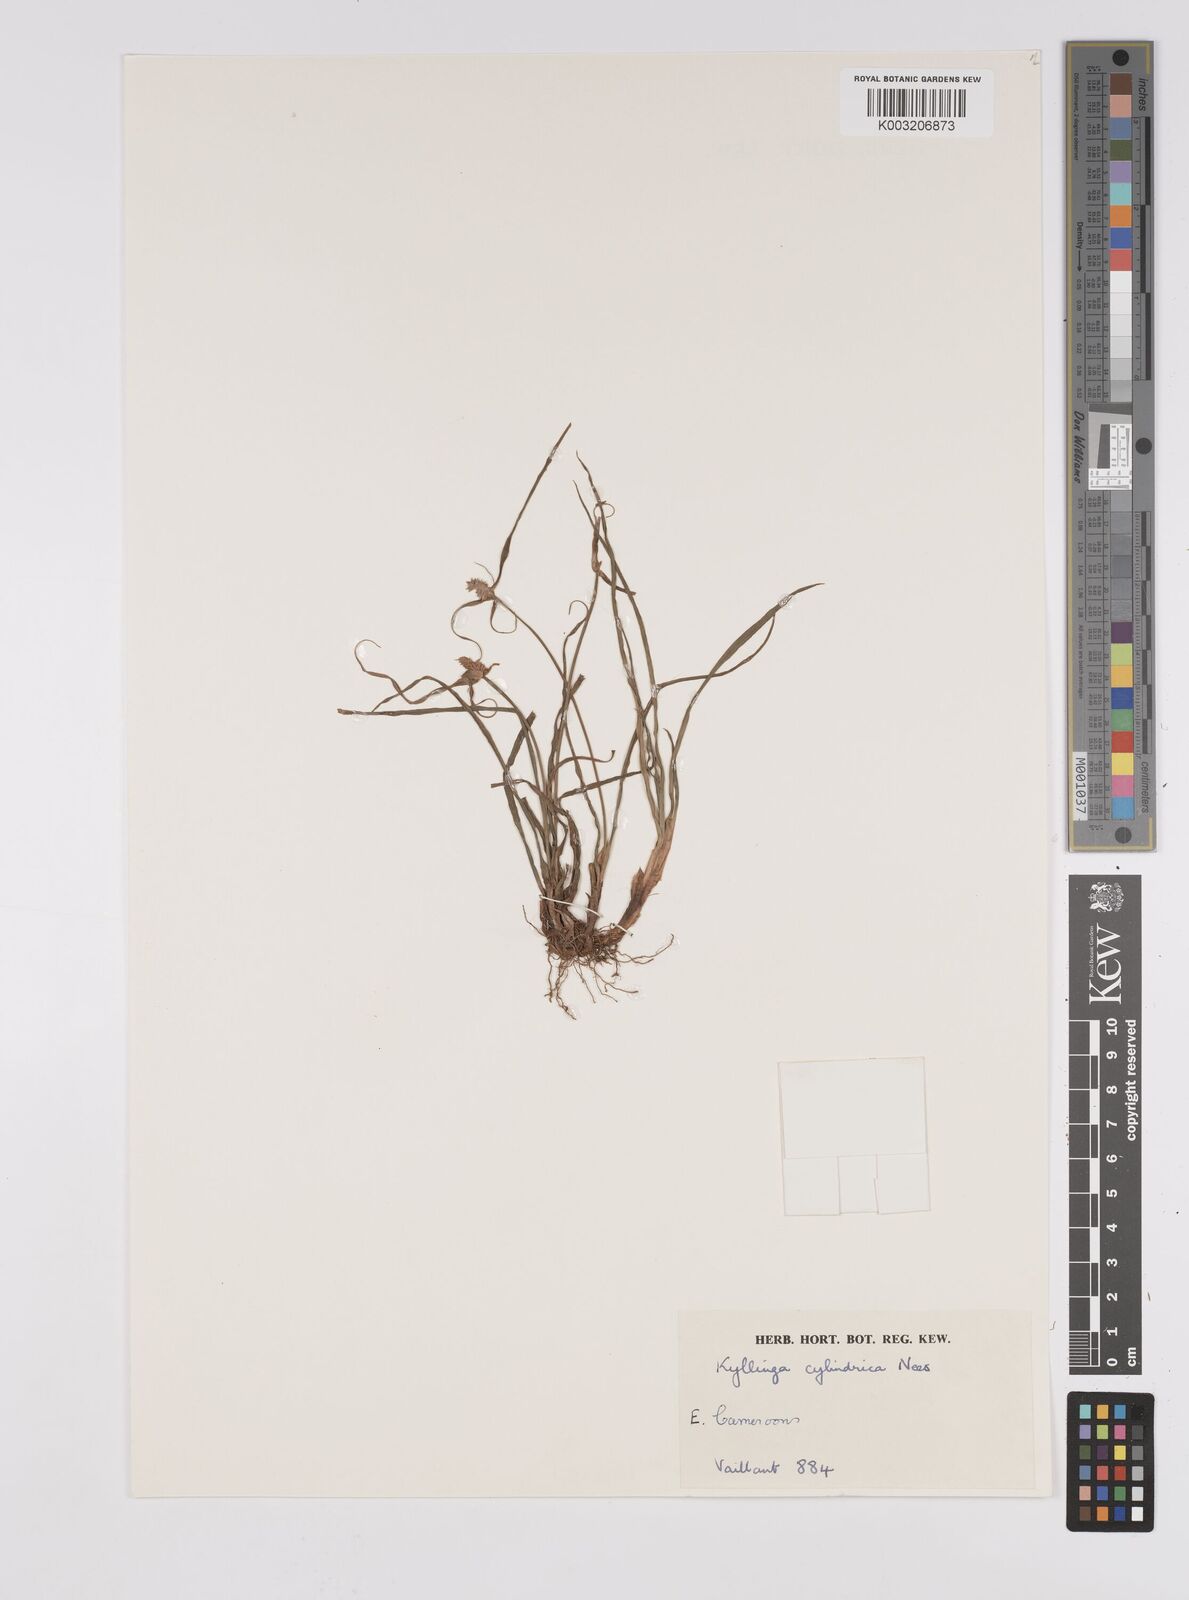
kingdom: Plantae
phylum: Tracheophyta
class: Liliopsida
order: Poales
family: Cyperaceae
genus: Cyperus
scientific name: Cyperus odoratus
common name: Fragrant flatsedge
